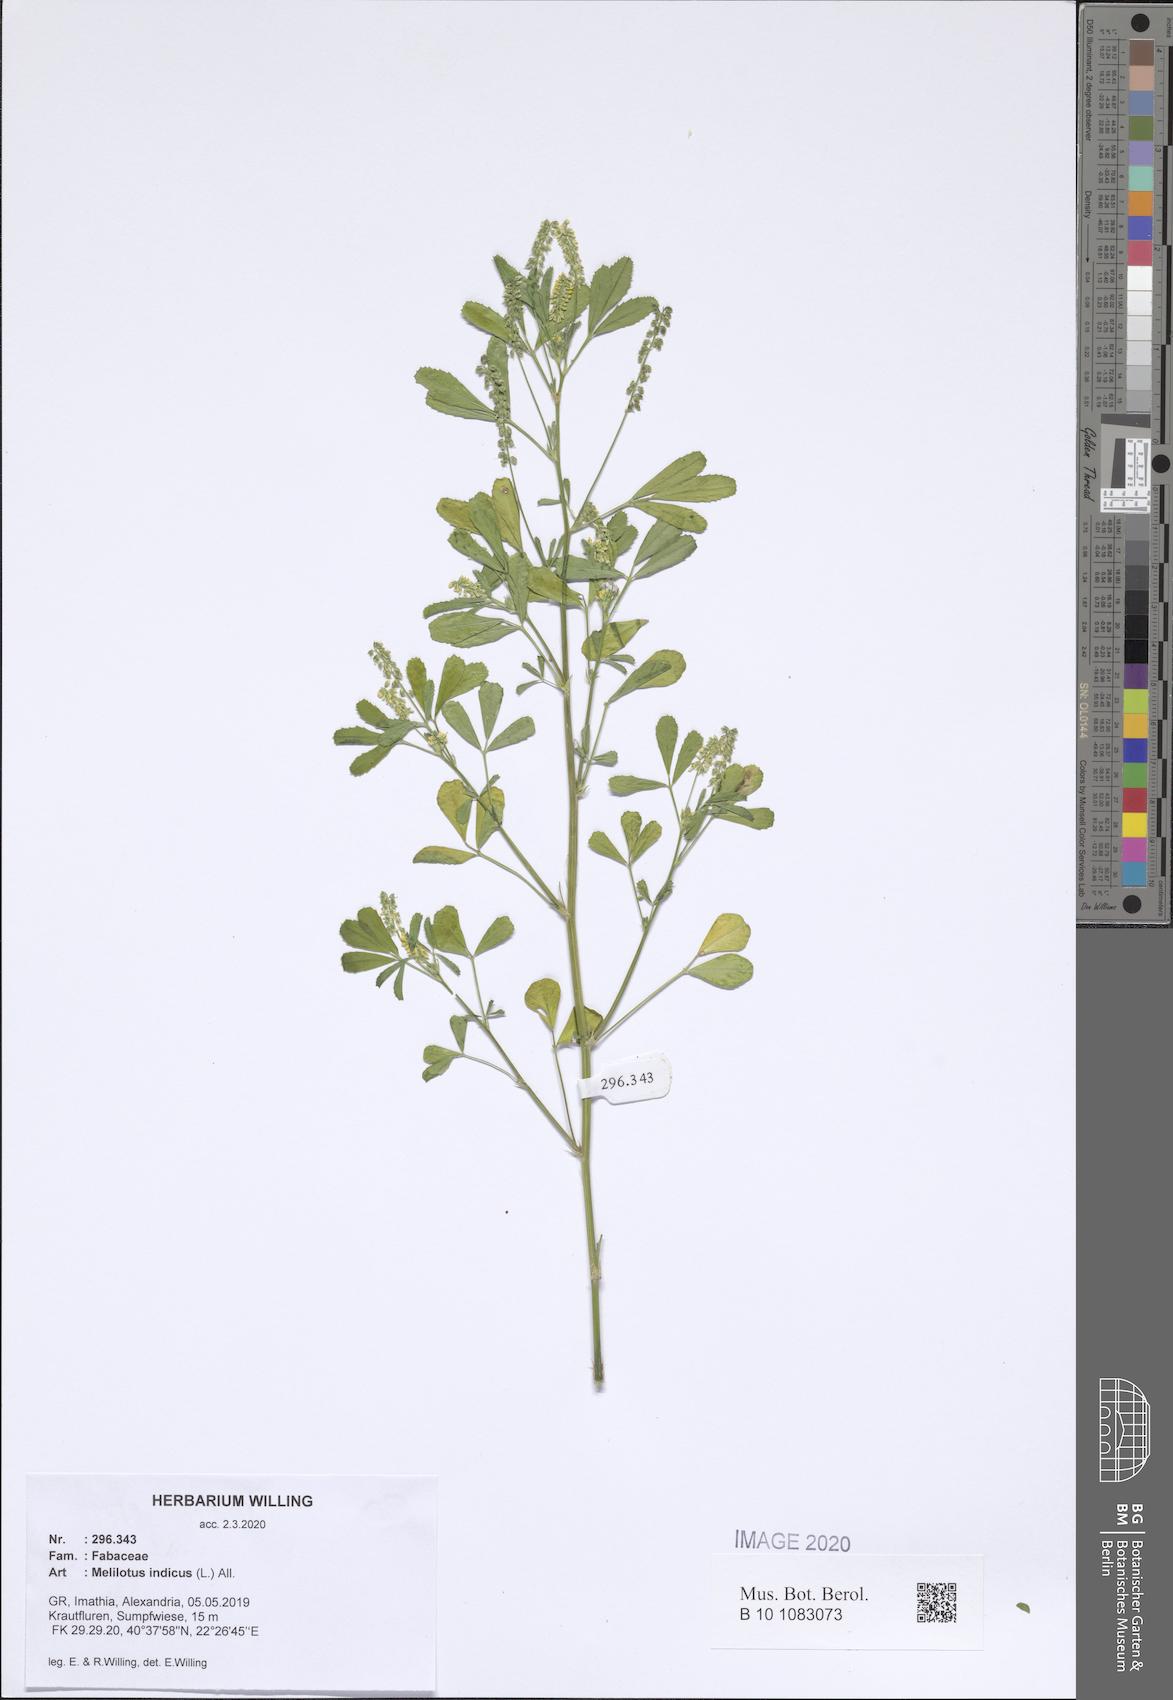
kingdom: Plantae
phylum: Tracheophyta
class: Magnoliopsida
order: Fabales
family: Fabaceae
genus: Melilotus
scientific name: Melilotus indicus
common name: Small melilot
